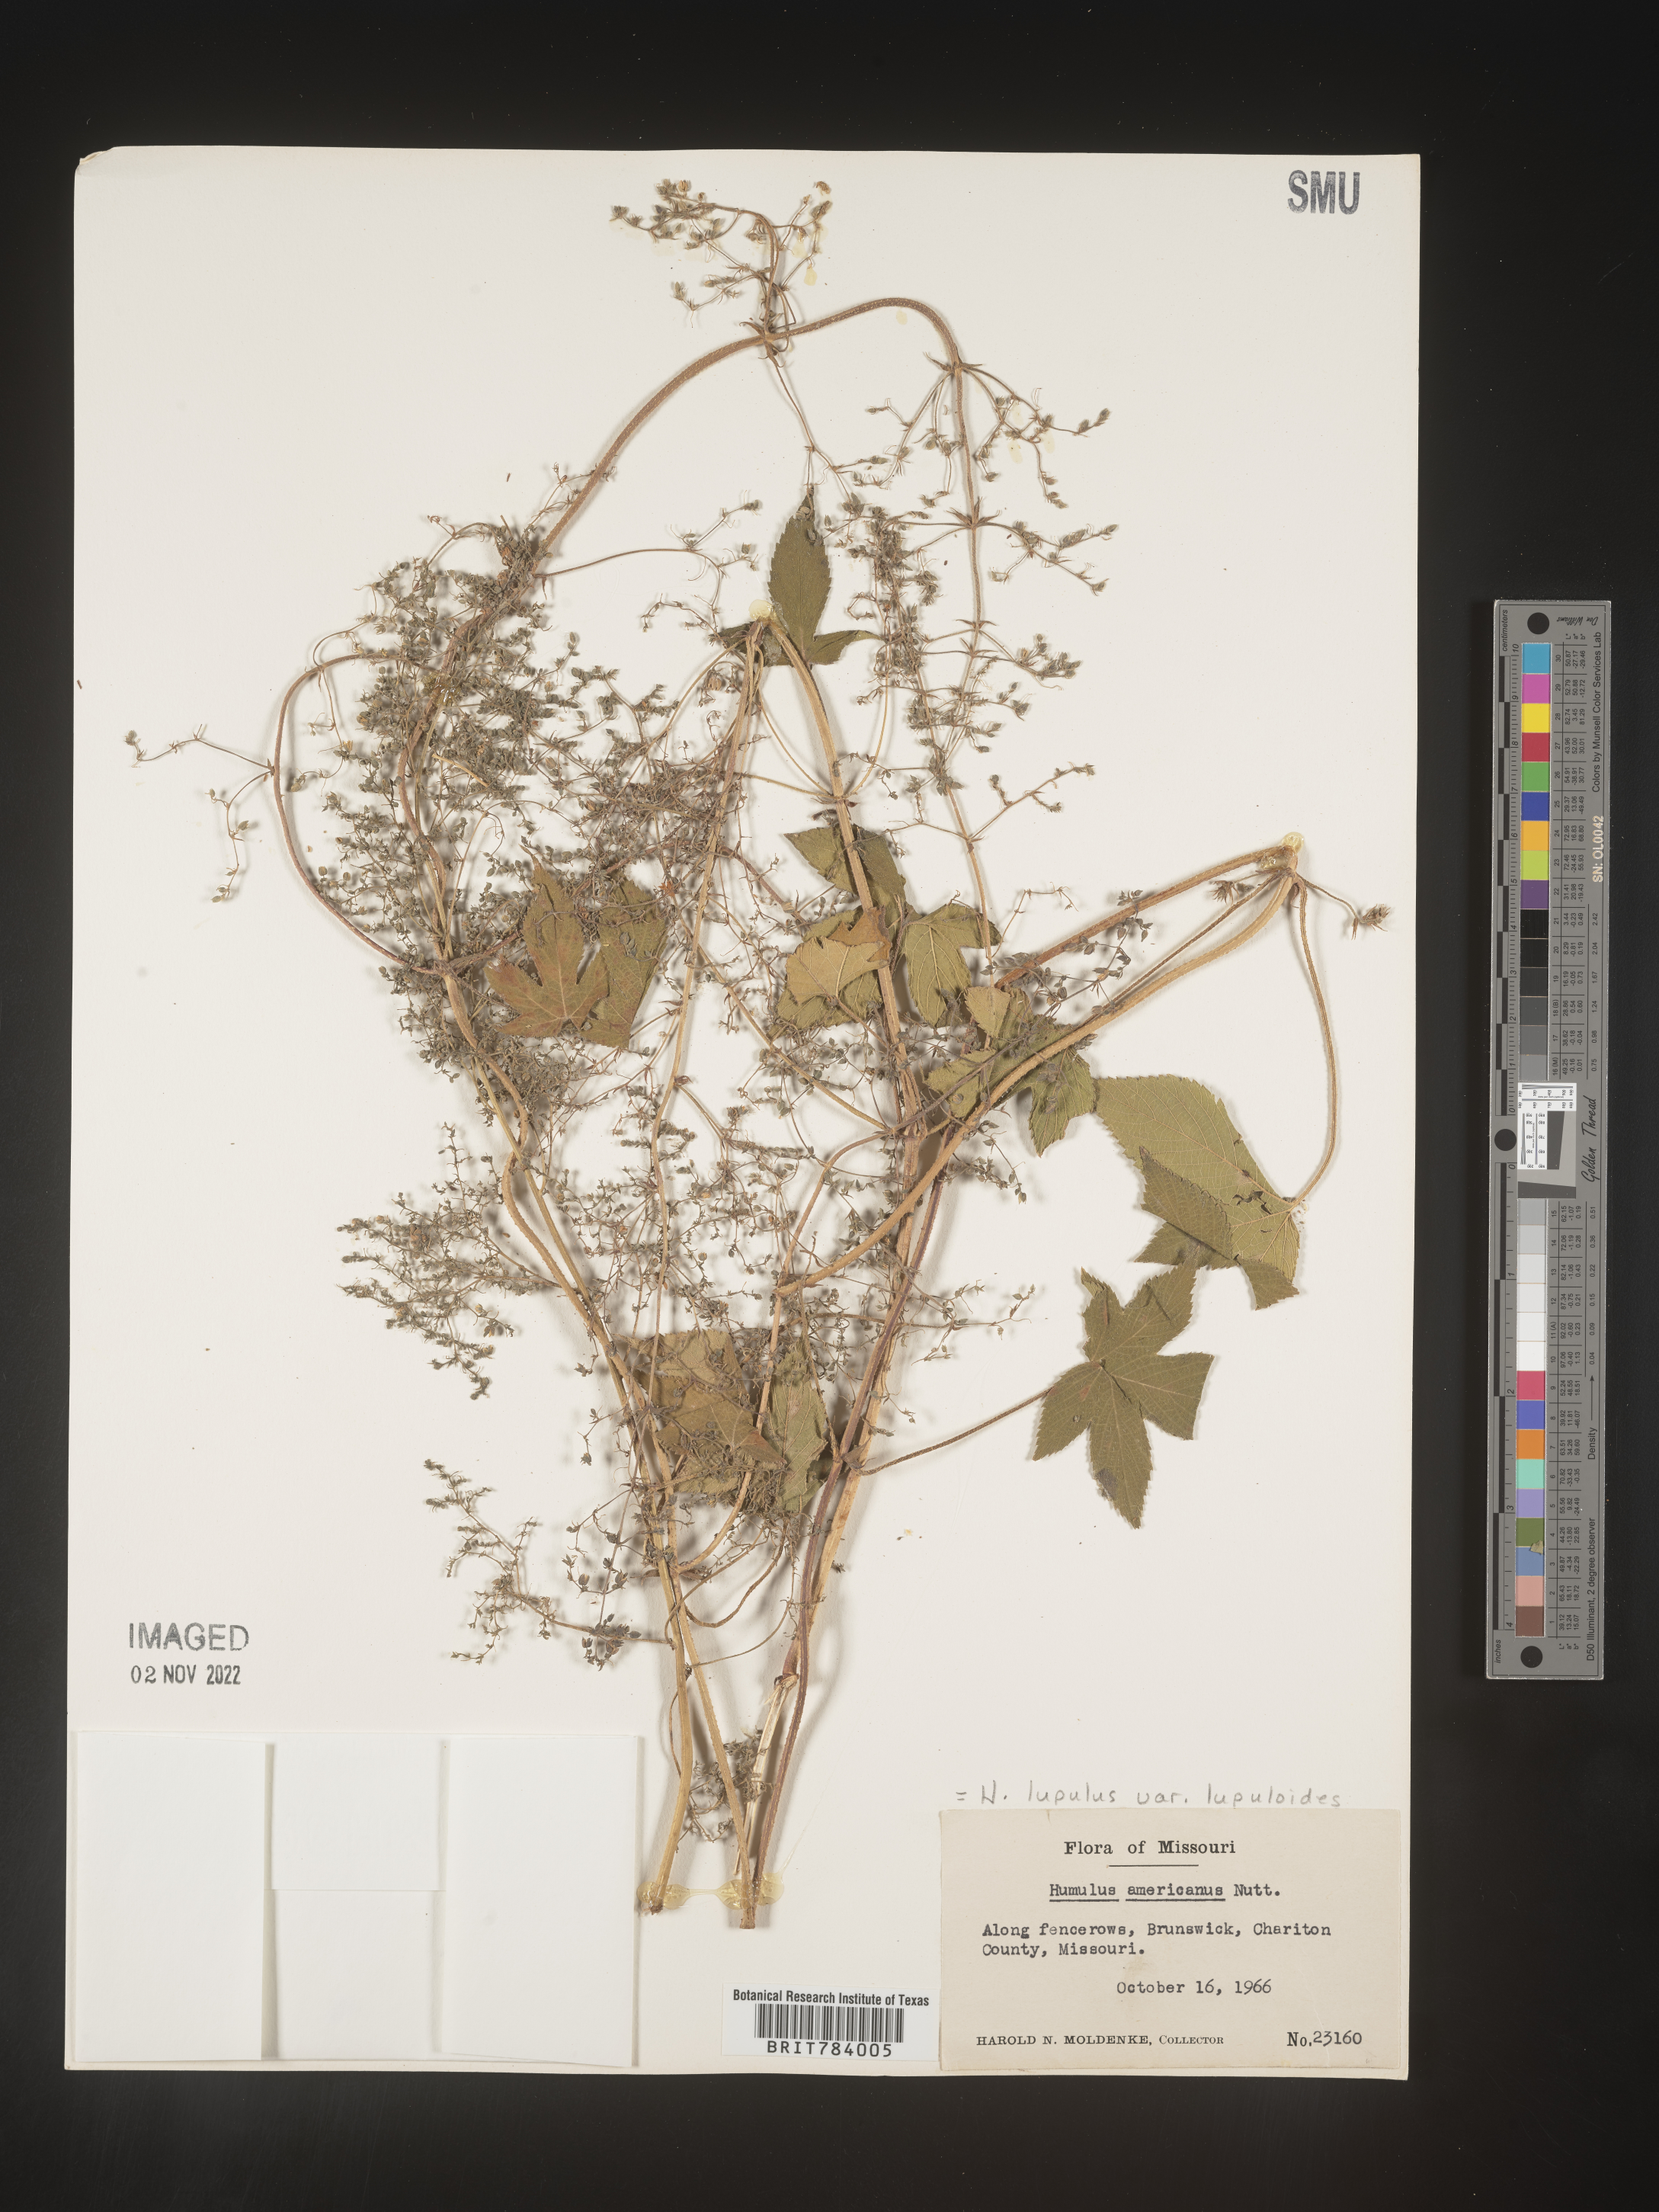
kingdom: Plantae
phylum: Tracheophyta
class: Magnoliopsida
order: Rosales
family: Cannabaceae
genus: Humulus
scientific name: Humulus americanus
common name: American hops
